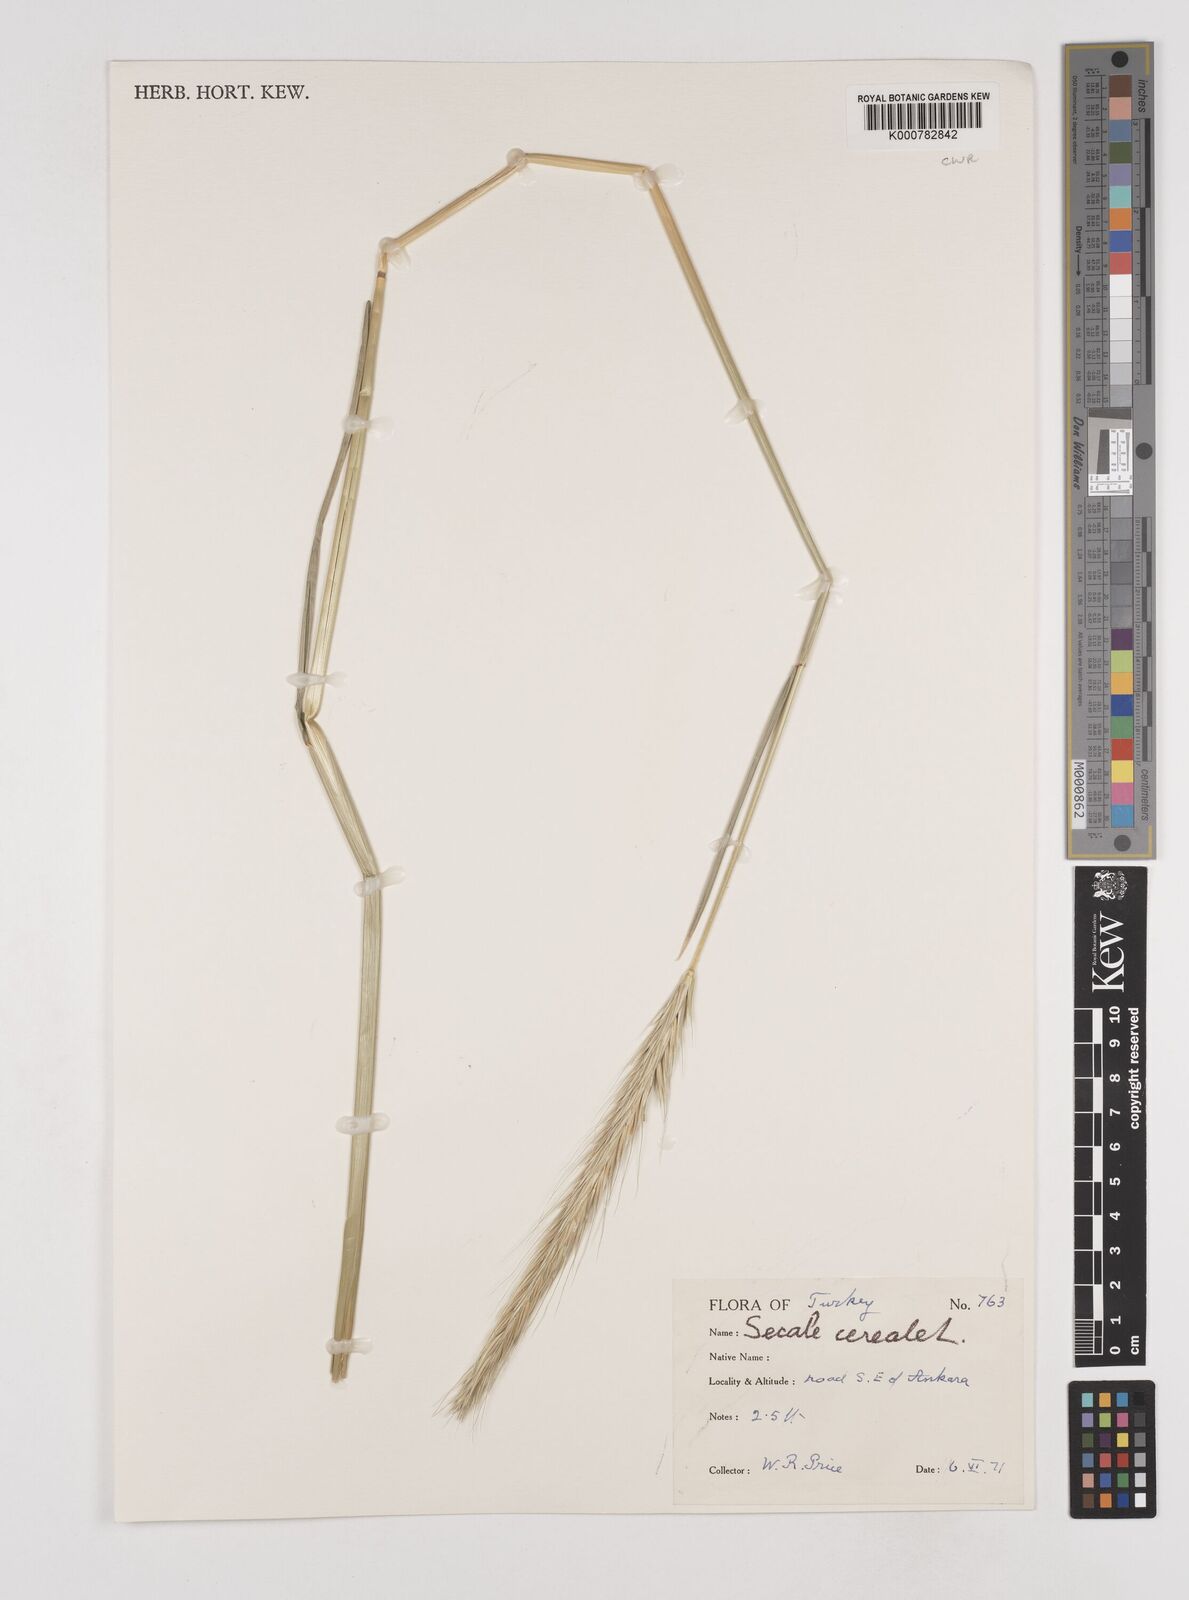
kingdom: Plantae
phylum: Tracheophyta
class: Liliopsida
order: Poales
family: Poaceae
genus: Secale
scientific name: Secale cereale
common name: Rye
